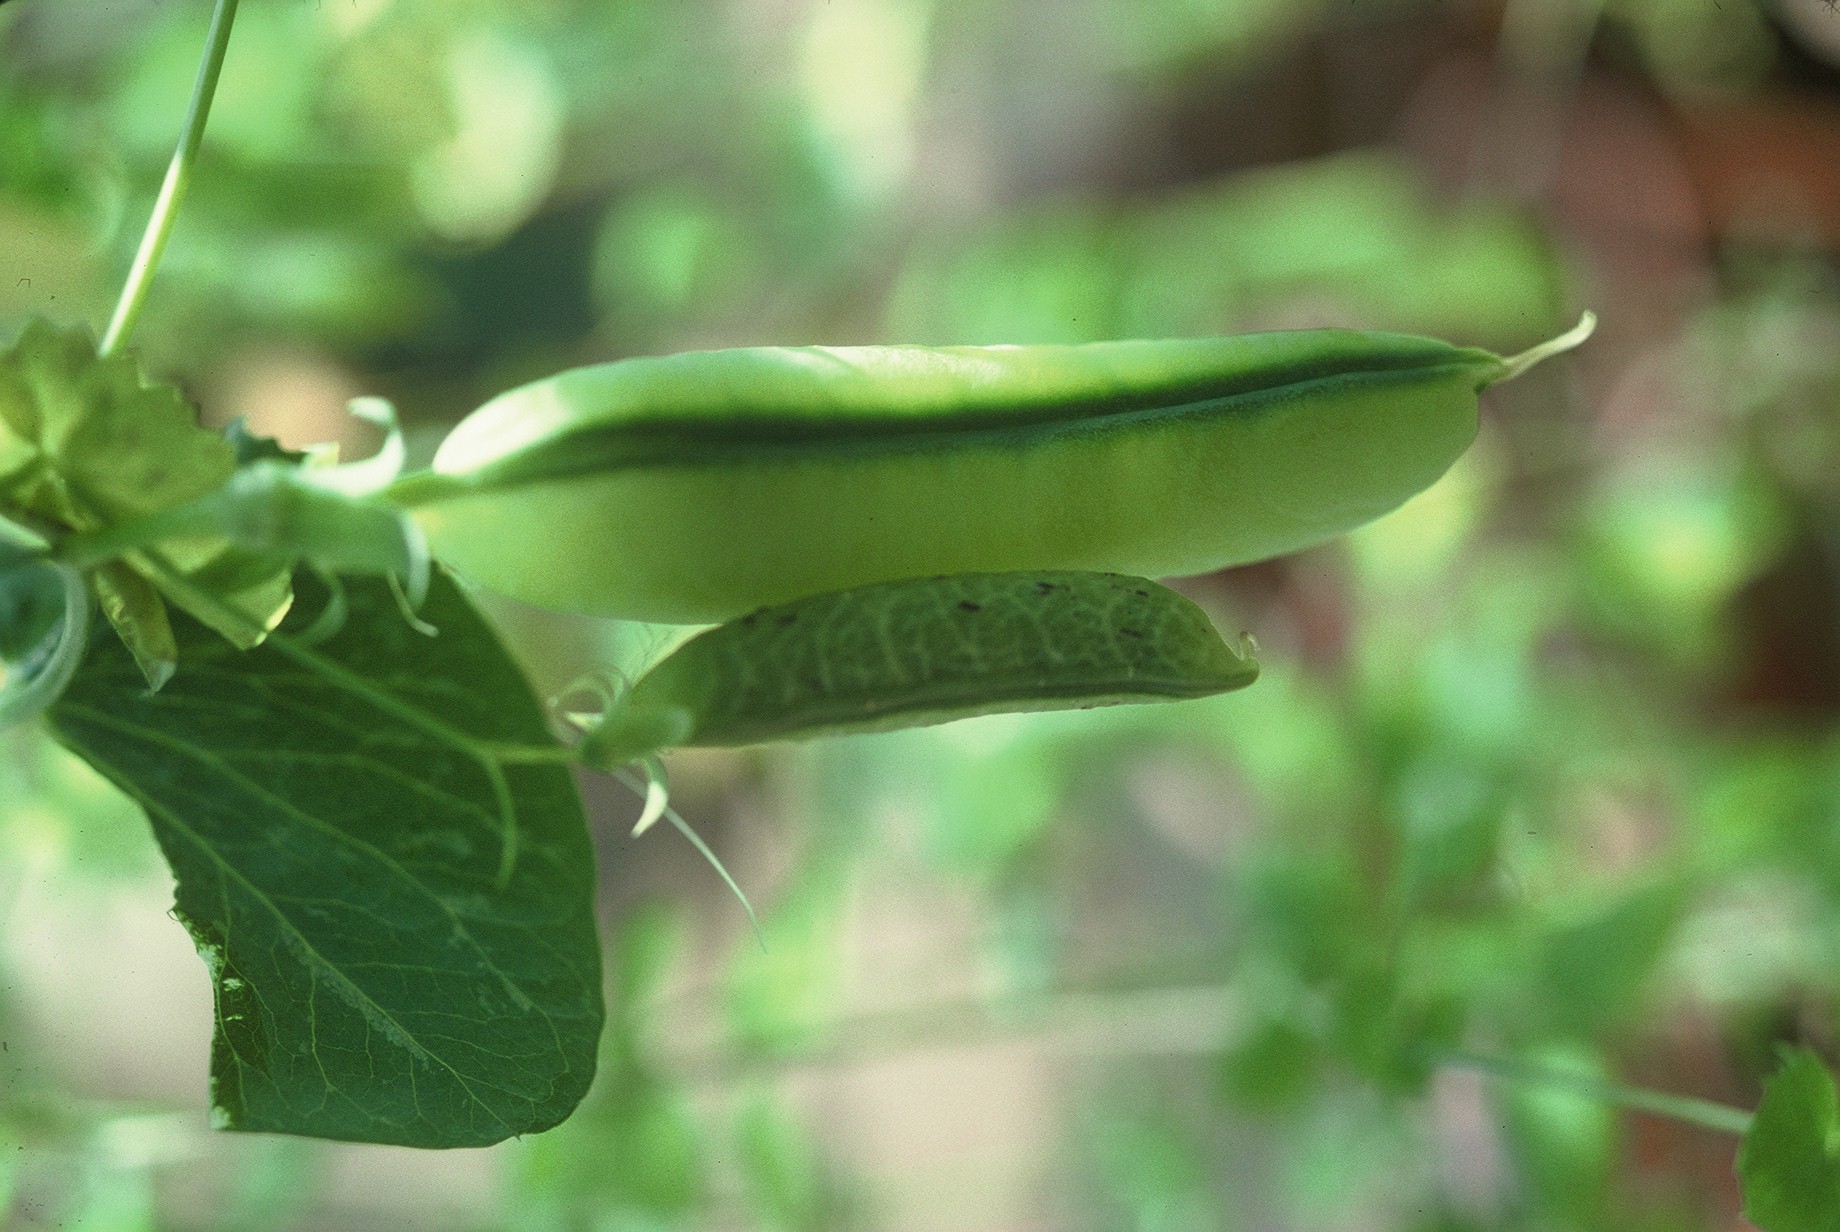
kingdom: Plantae
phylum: Tracheophyta
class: Magnoliopsida
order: Fabales
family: Fabaceae
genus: Lathyrus
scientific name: Lathyrus fulvus
